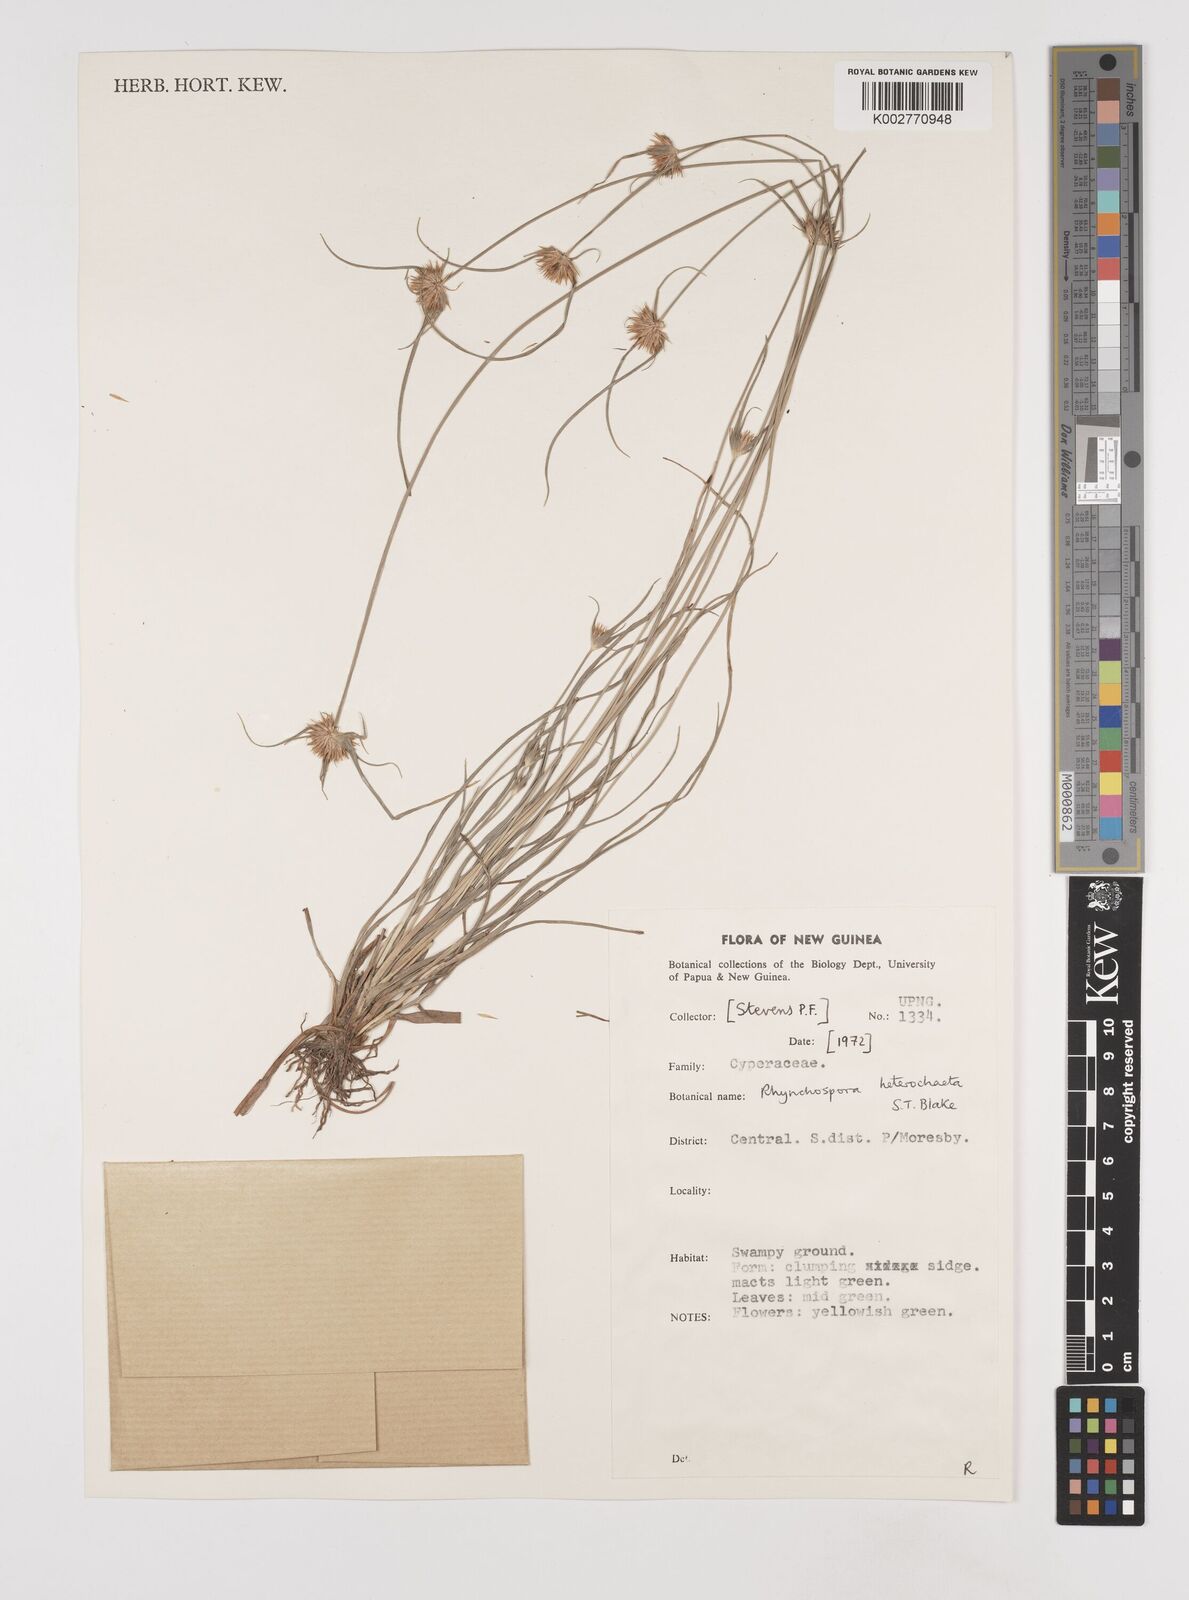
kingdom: Plantae
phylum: Tracheophyta
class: Liliopsida
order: Poales
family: Cyperaceae
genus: Rhynchospora
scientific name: Rhynchospora heterochaeta
